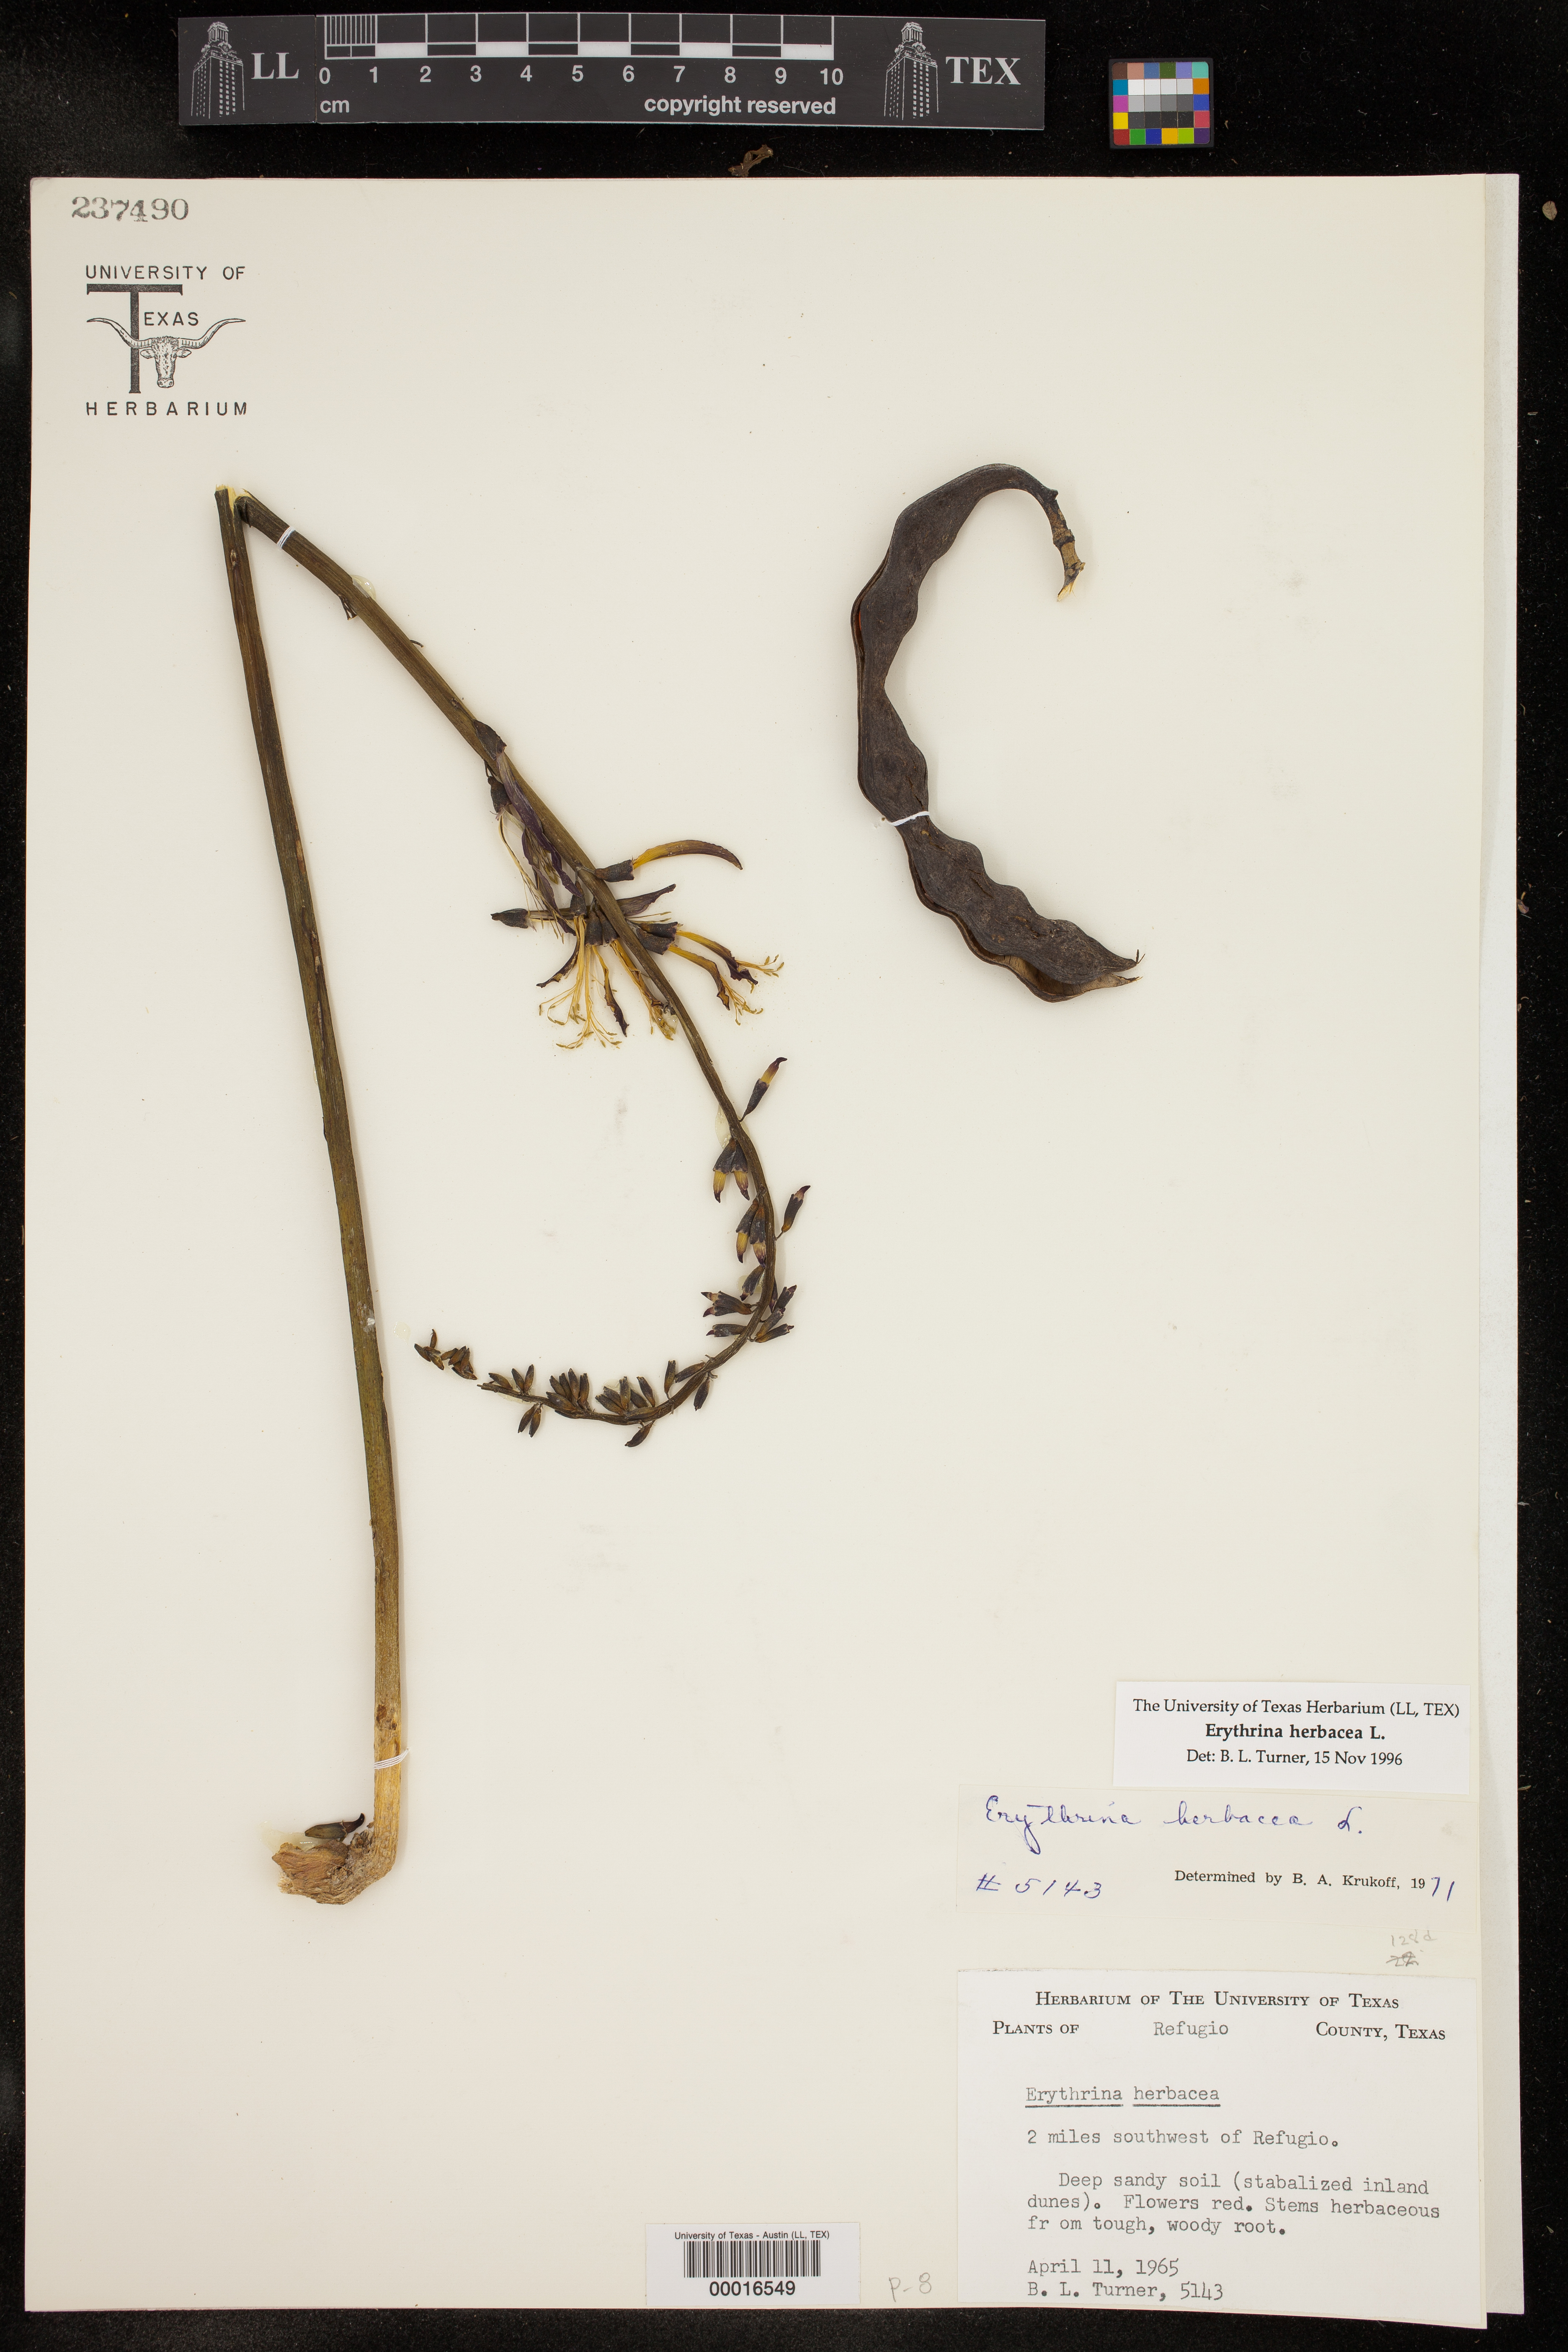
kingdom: Plantae
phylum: Tracheophyta
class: Magnoliopsida
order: Fabales
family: Fabaceae
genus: Erythrina
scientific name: Erythrina herbacea
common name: Coral-bean
